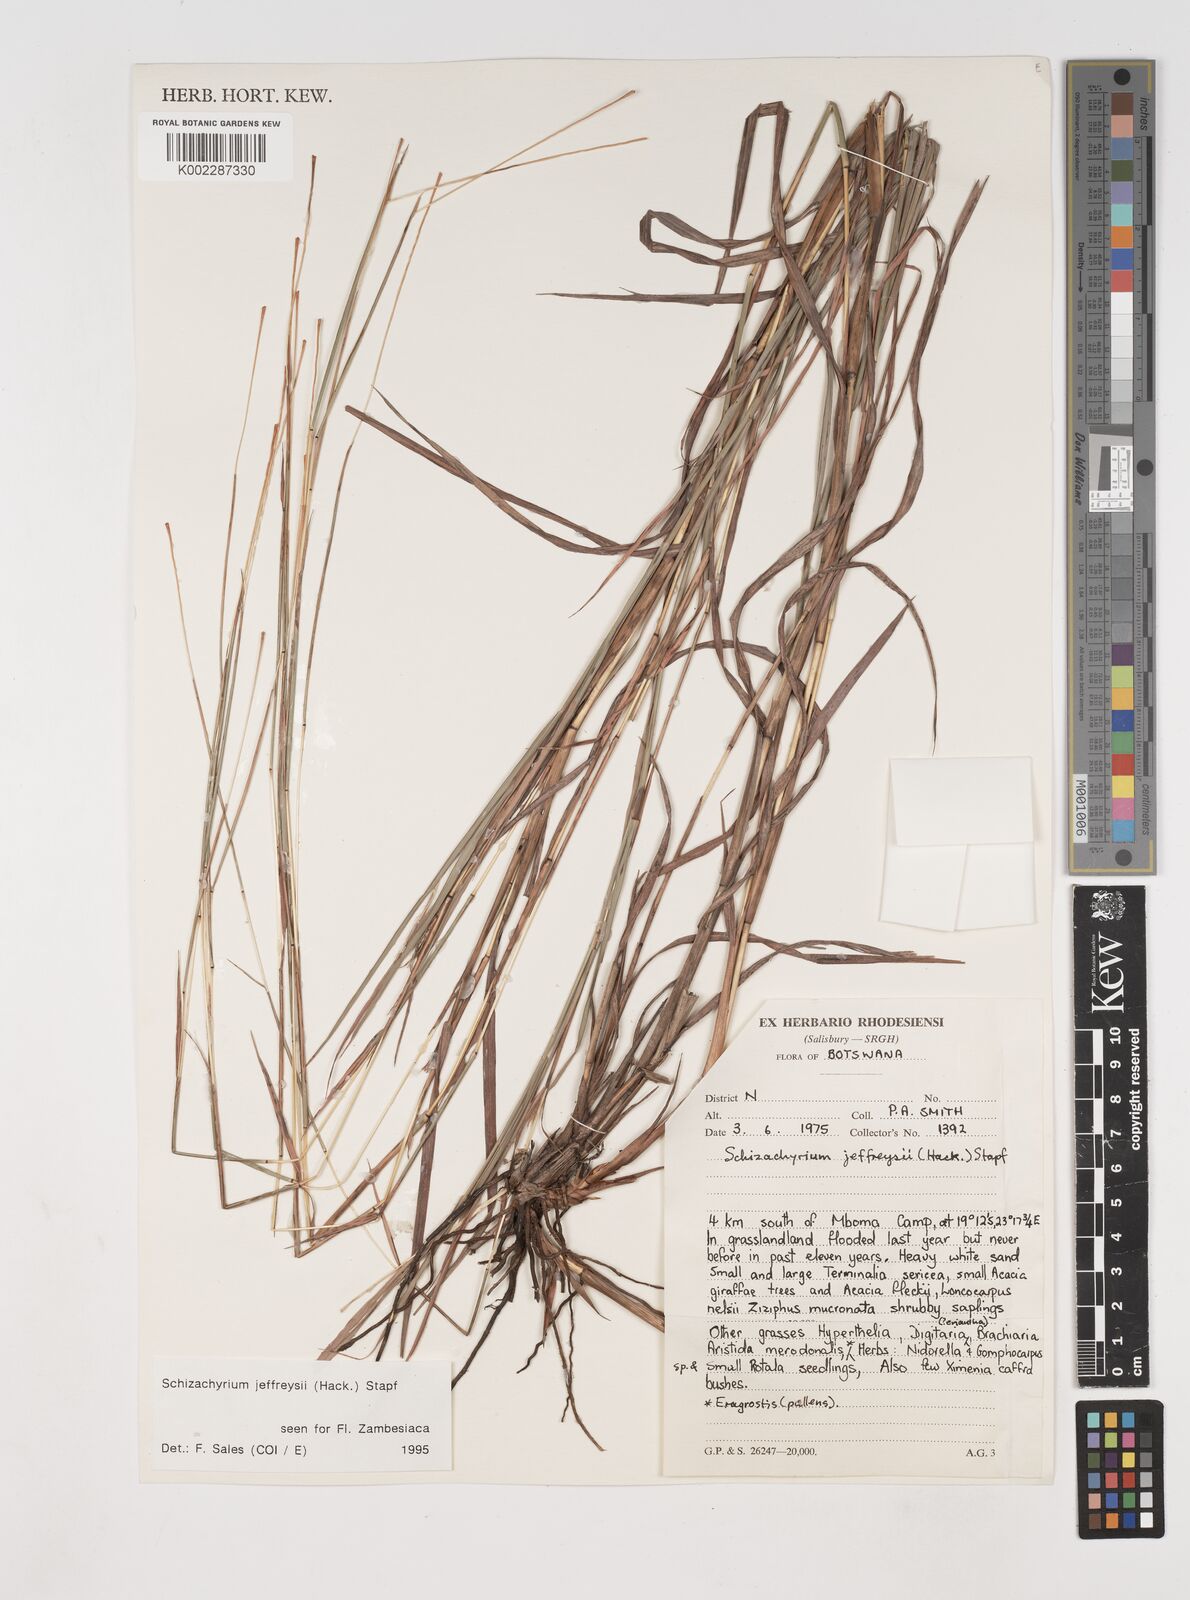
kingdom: Plantae
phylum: Tracheophyta
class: Liliopsida
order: Poales
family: Poaceae
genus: Schizachyrium
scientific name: Schizachyrium jeffreysii
